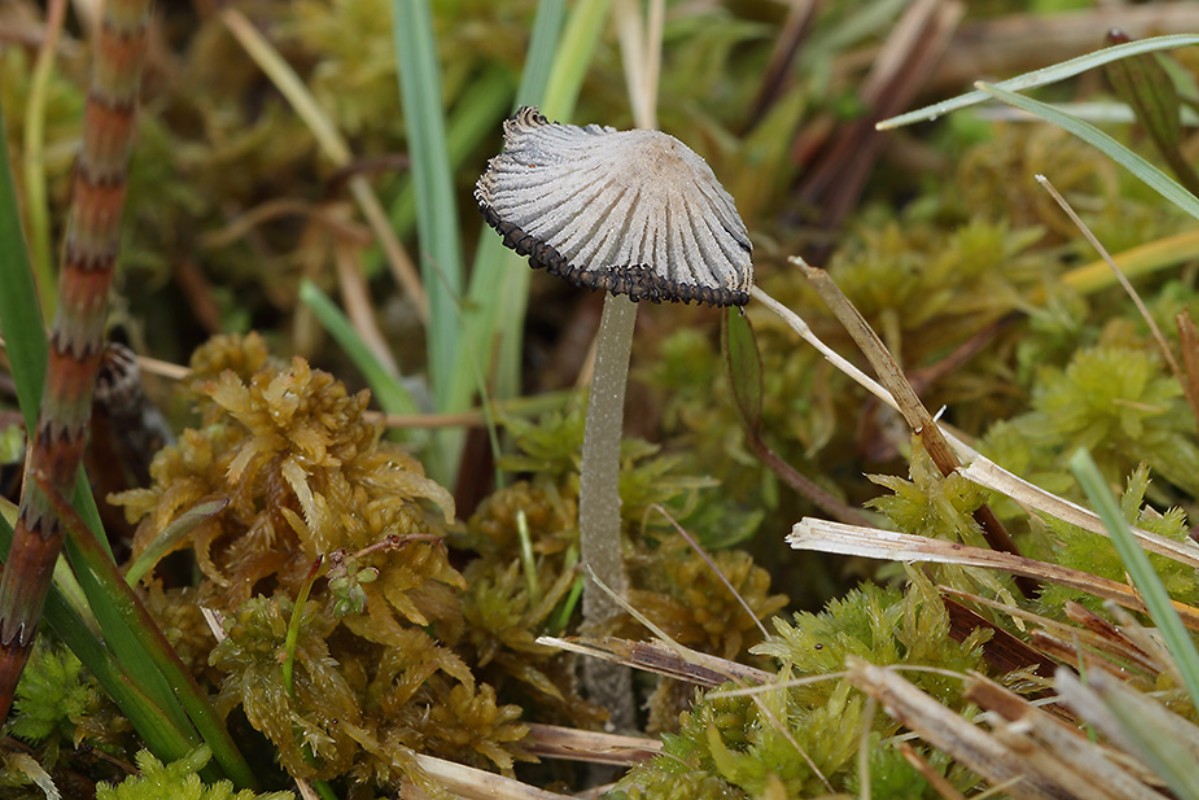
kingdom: Fungi
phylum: Basidiomycota
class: Agaricomycetes
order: Agaricales
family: Psathyrellaceae
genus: Coprinopsis
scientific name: Coprinopsis martinii
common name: rigkær-blækhat
